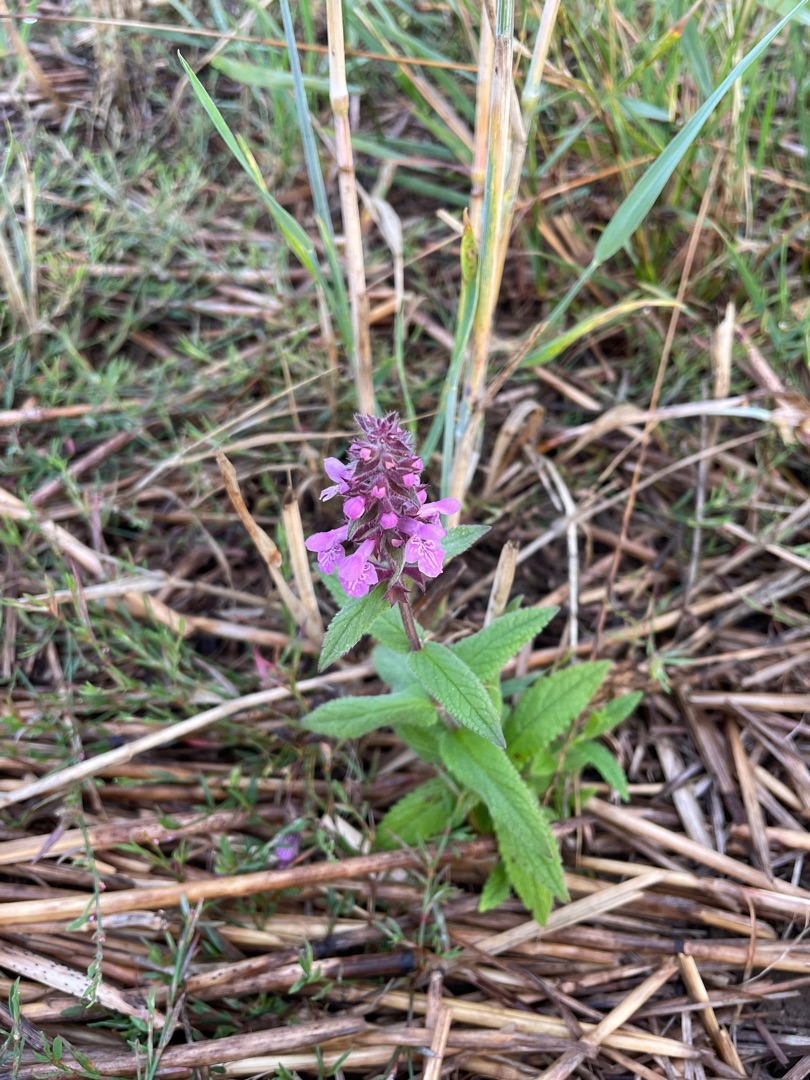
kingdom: Plantae
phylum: Tracheophyta
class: Magnoliopsida
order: Lamiales
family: Lamiaceae
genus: Stachys
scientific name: Stachys palustris
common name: Kær-galtetand
